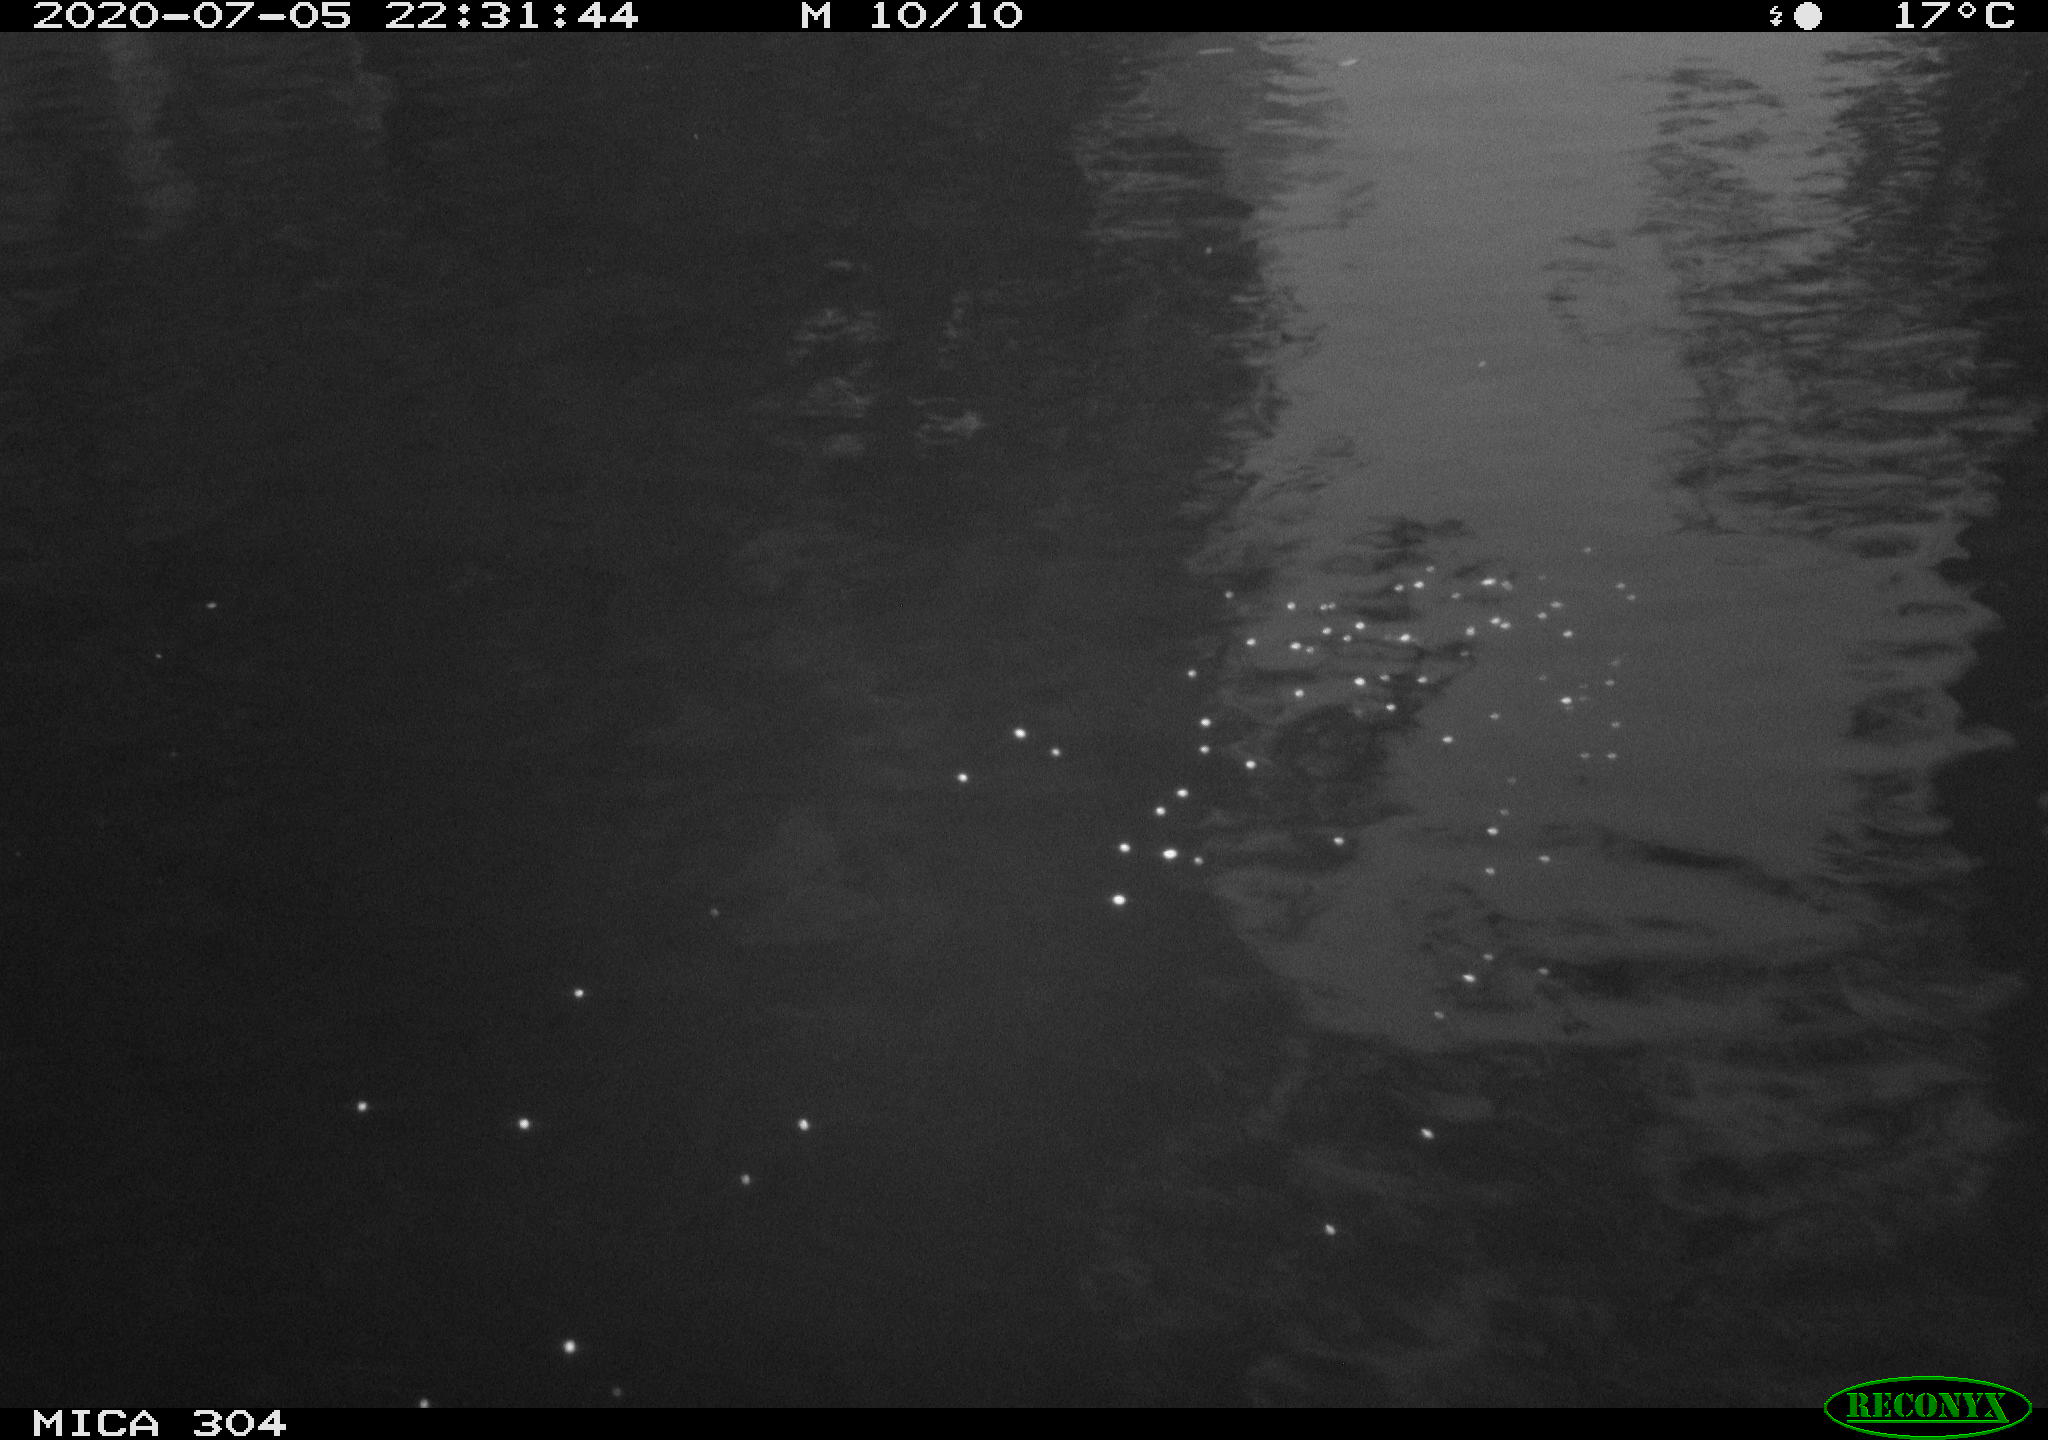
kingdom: Animalia
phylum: Chordata
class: Aves
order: Anseriformes
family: Anatidae
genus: Anas
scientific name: Anas platyrhynchos
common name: Mallard
